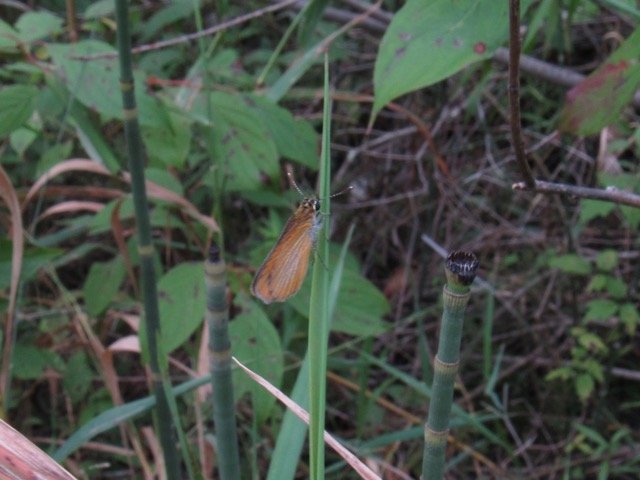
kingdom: Animalia
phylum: Arthropoda
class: Insecta
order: Lepidoptera
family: Hesperiidae
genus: Ancyloxypha
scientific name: Ancyloxypha numitor
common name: Least Skipper
